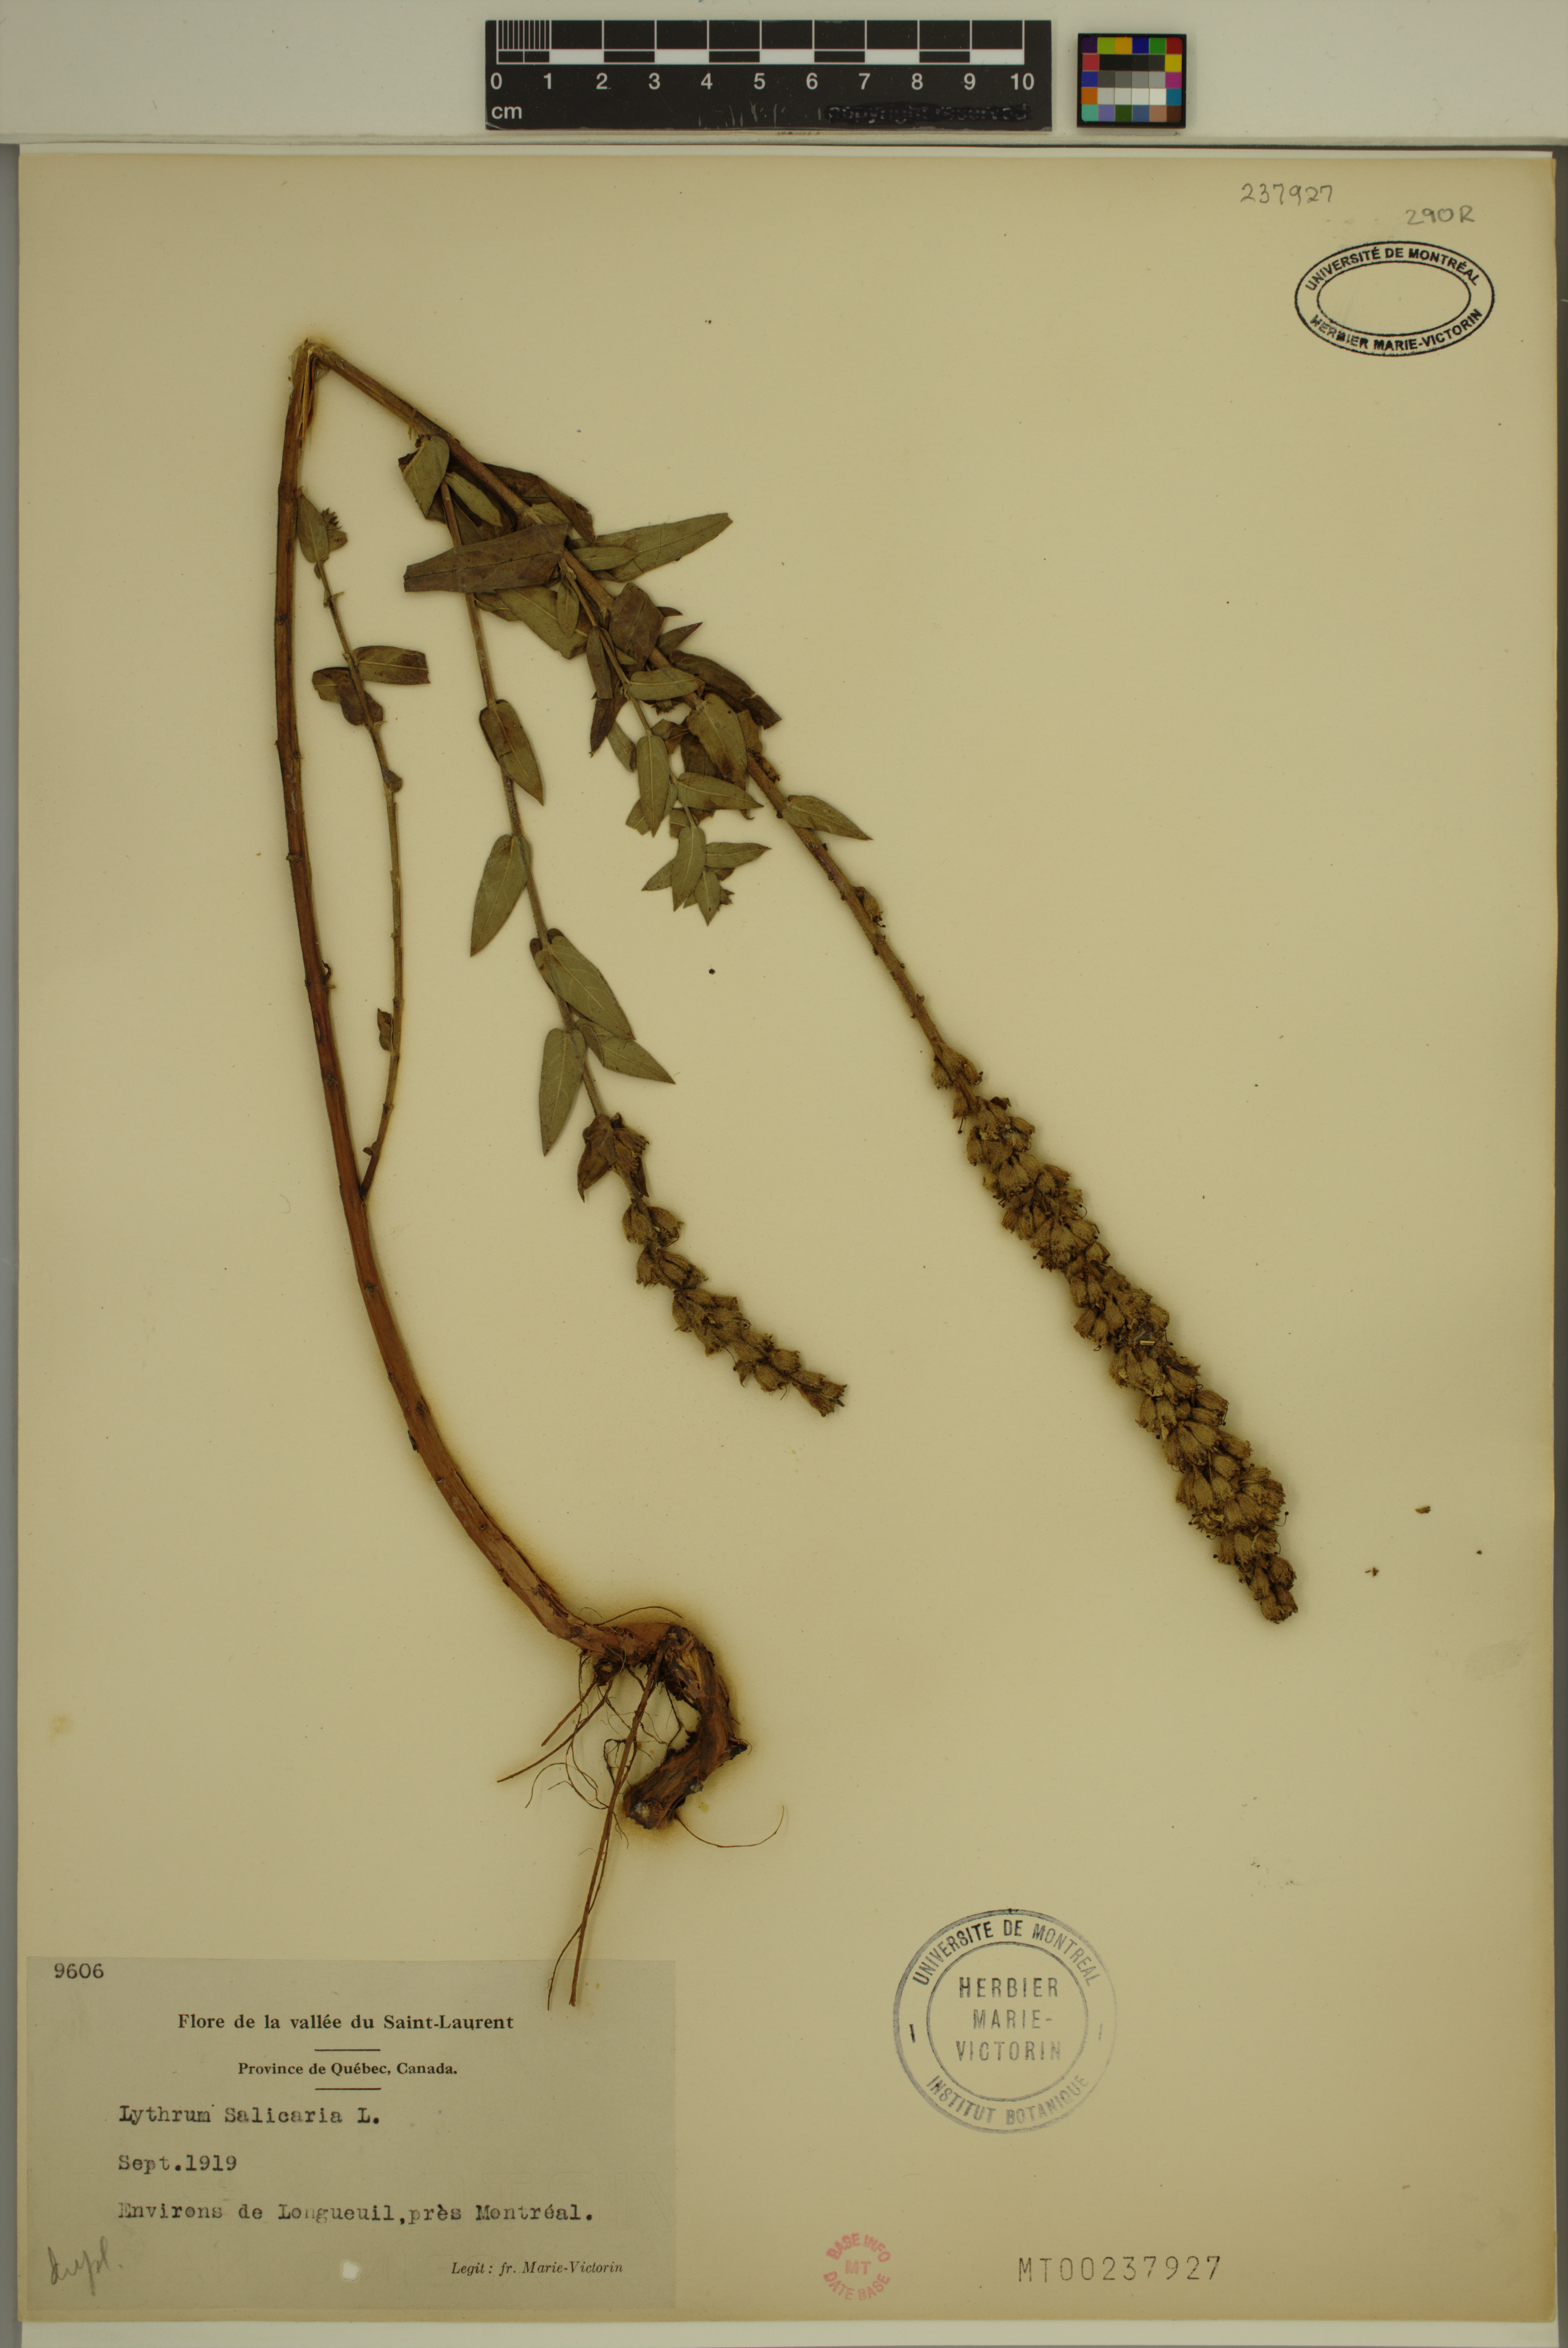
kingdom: Plantae
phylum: Tracheophyta
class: Magnoliopsida
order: Myrtales
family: Lythraceae
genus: Lythrum
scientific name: Lythrum salicaria
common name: Purple loosestrife
